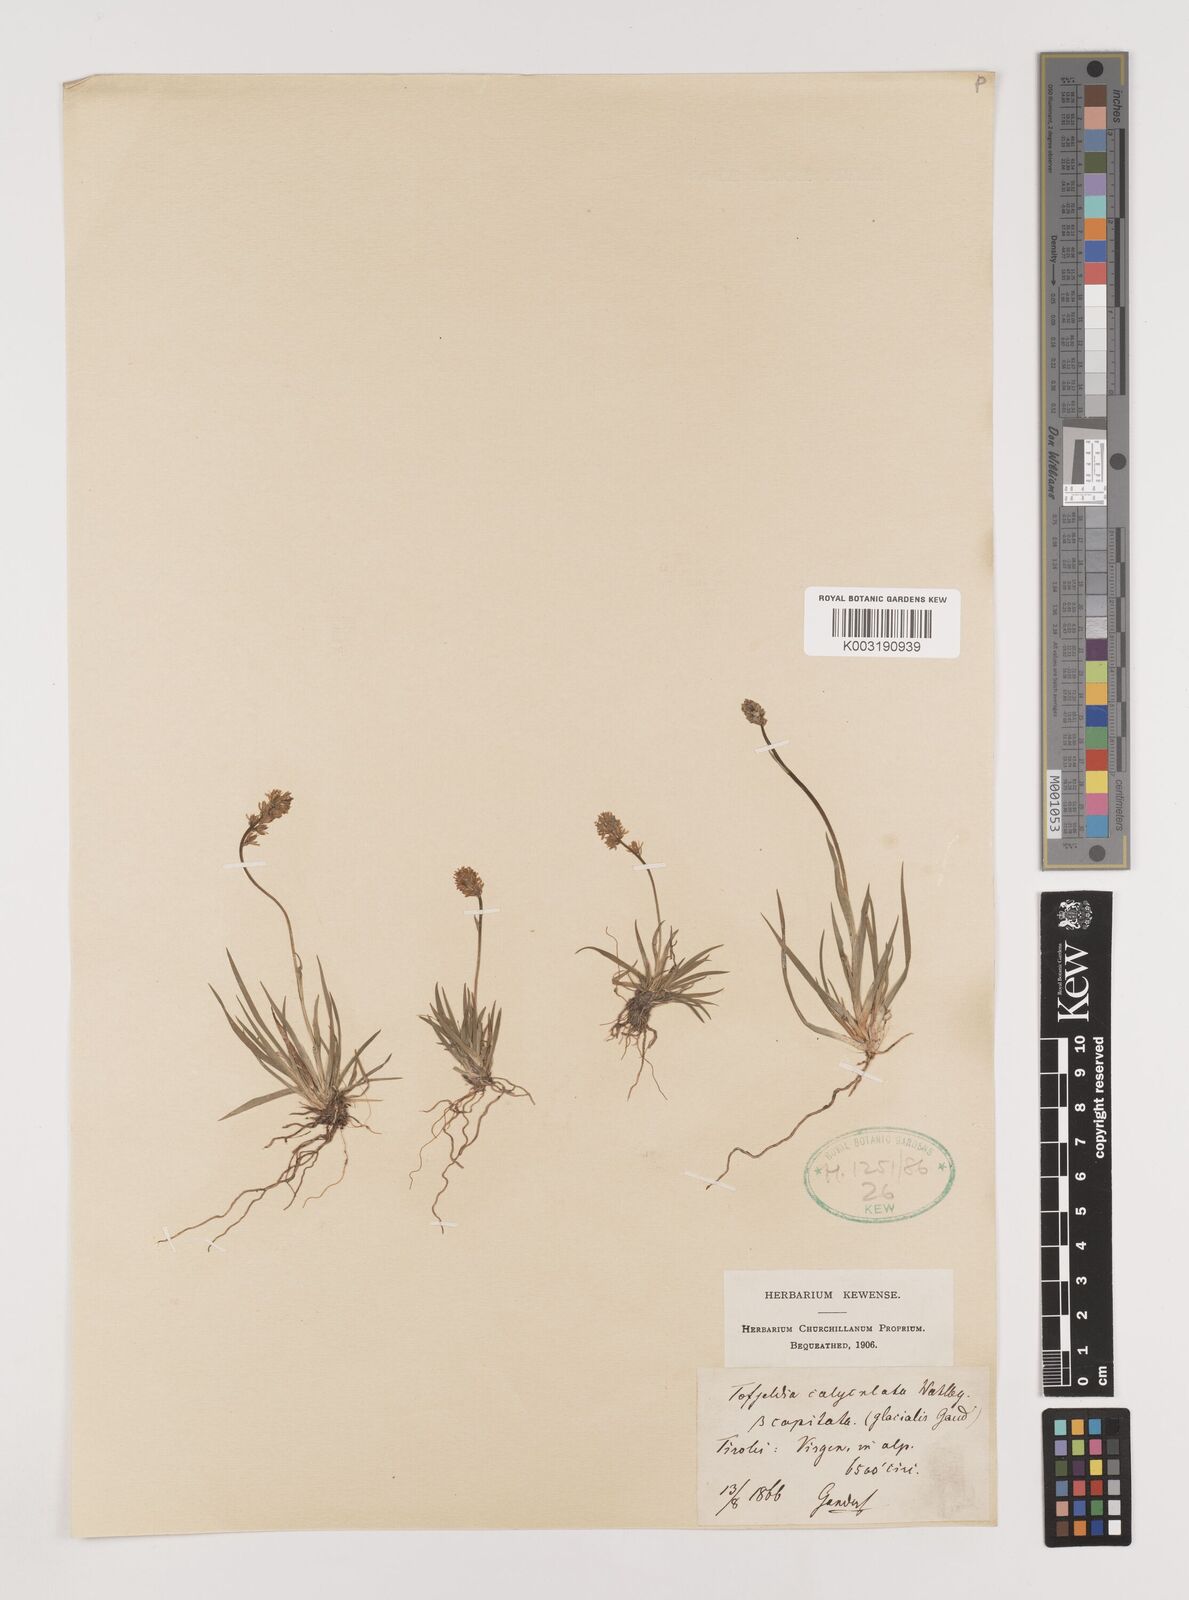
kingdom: Plantae
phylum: Tracheophyta
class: Liliopsida
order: Alismatales
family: Tofieldiaceae
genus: Tofieldia
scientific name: Tofieldia calyculata
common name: German-asphodel
